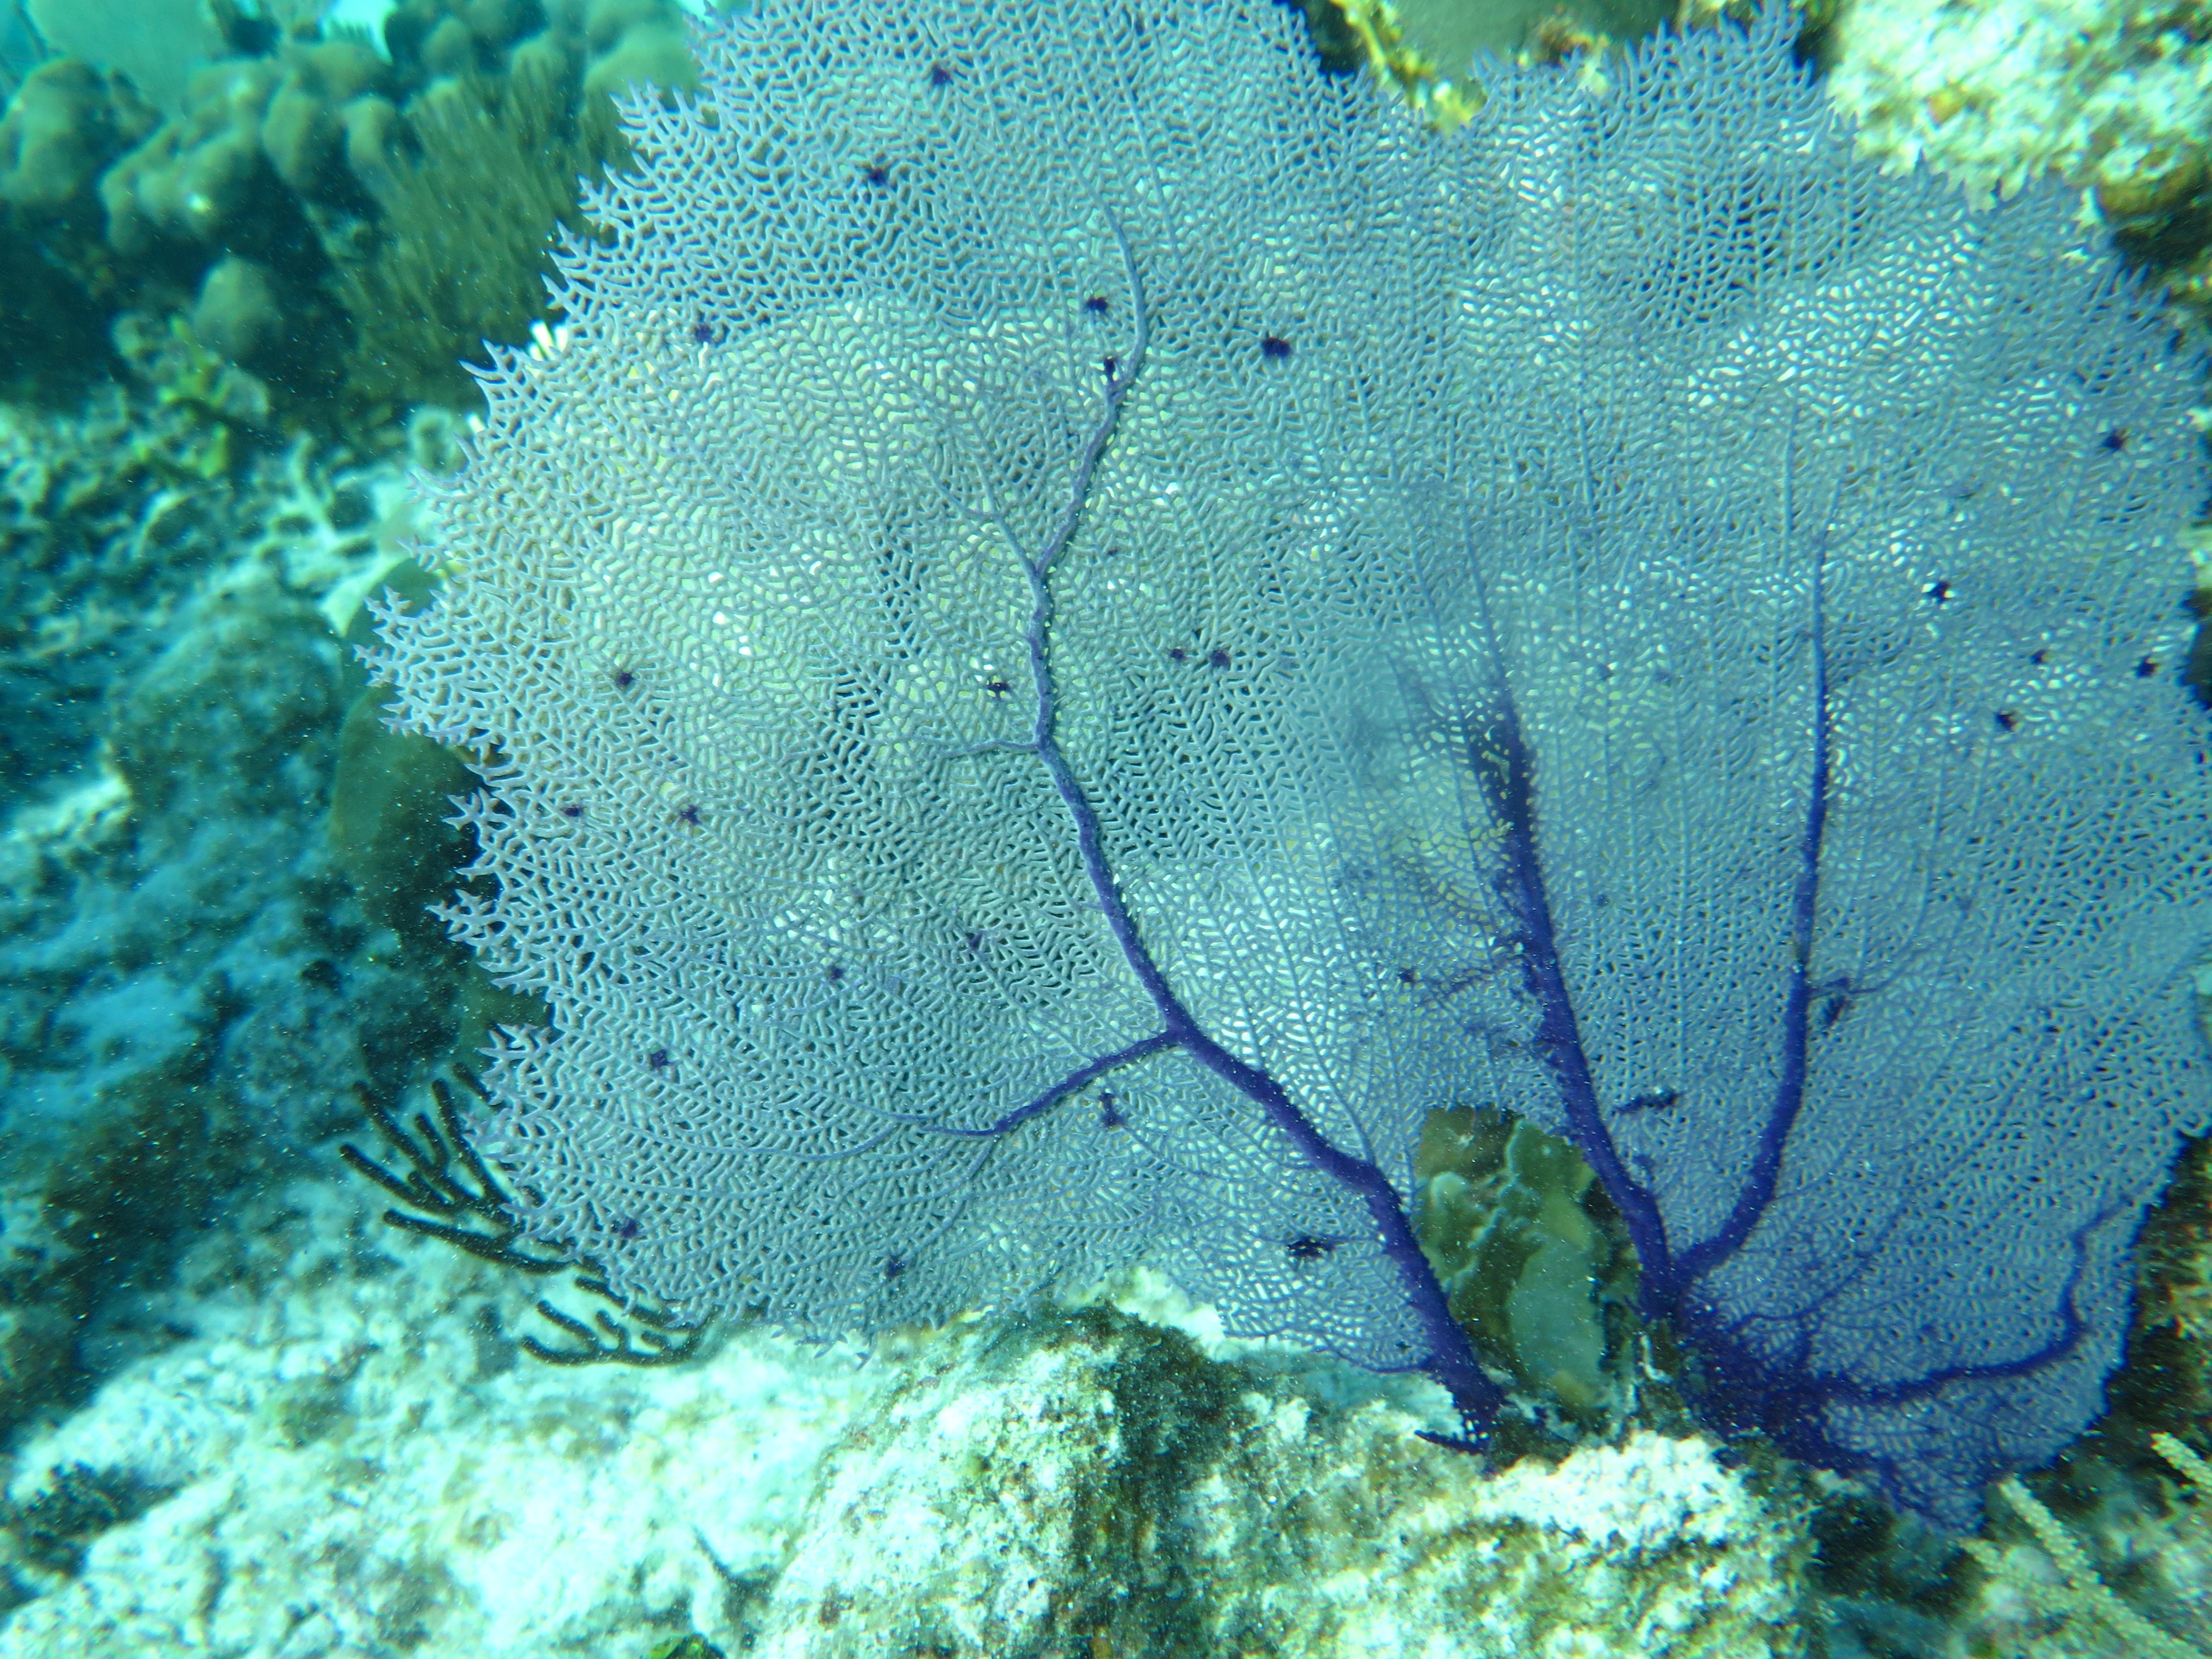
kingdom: Animalia
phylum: Cnidaria
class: Anthozoa
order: Malacalcyonacea
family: Gorgoniidae
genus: Gorgonia
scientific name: Gorgonia ventalina
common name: Common sea fan
